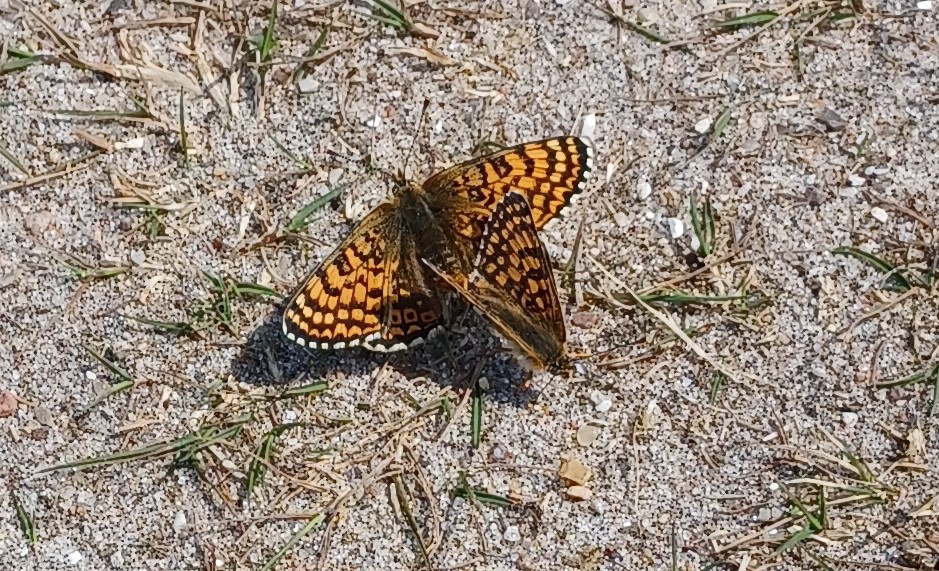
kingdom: Animalia
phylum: Arthropoda
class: Insecta
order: Lepidoptera
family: Nymphalidae
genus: Melitaea
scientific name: Melitaea cinxia
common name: Okkergul pletvinge
